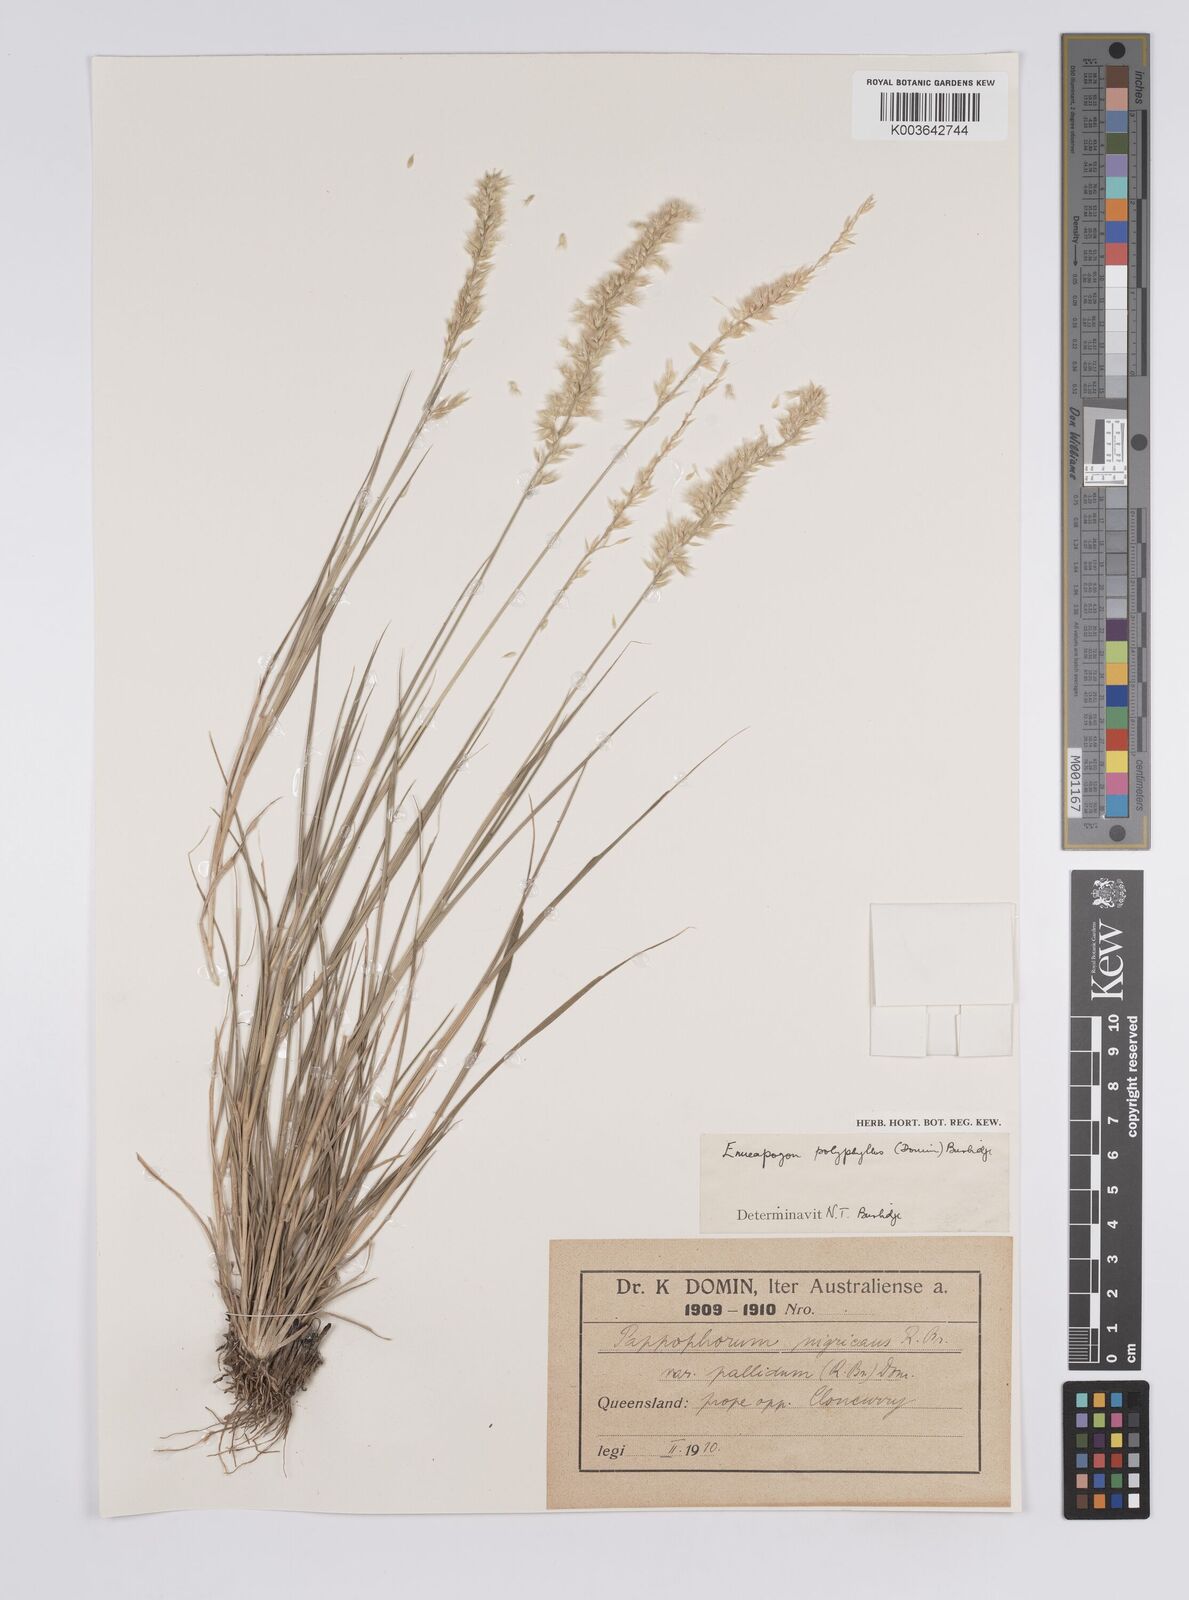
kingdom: Plantae
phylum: Tracheophyta
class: Liliopsida
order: Poales
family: Poaceae
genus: Enneapogon
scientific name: Enneapogon polyphyllus
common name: Leafy nineawn
